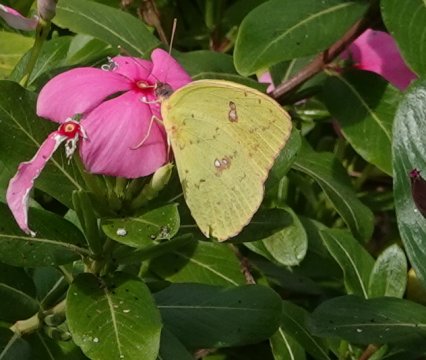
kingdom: Animalia
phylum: Arthropoda
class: Insecta
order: Lepidoptera
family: Pieridae
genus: Phoebis
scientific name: Phoebis sennae
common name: Cloudless Sulphur
